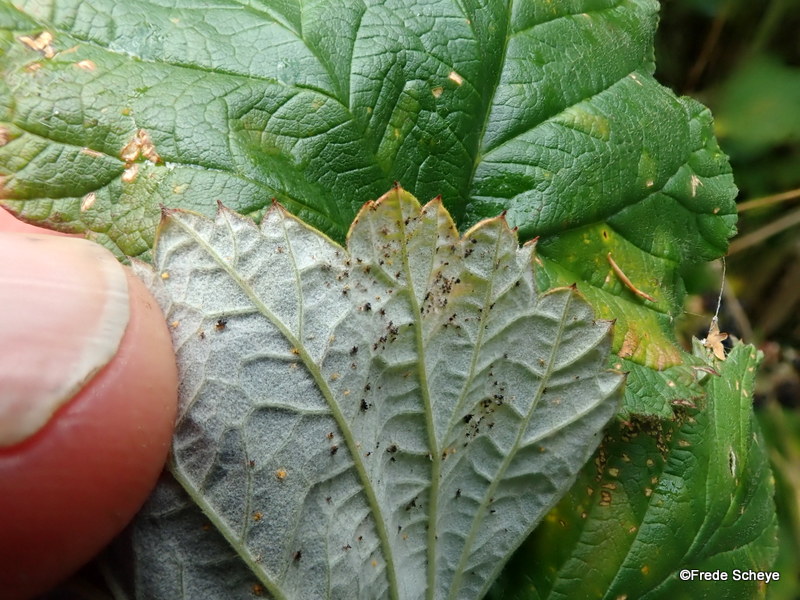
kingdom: Fungi
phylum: Basidiomycota
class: Pucciniomycetes
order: Pucciniales
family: Phragmidiaceae
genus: Phragmidium
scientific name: Phragmidium rubi-idaei
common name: hindbær-flercellerust
